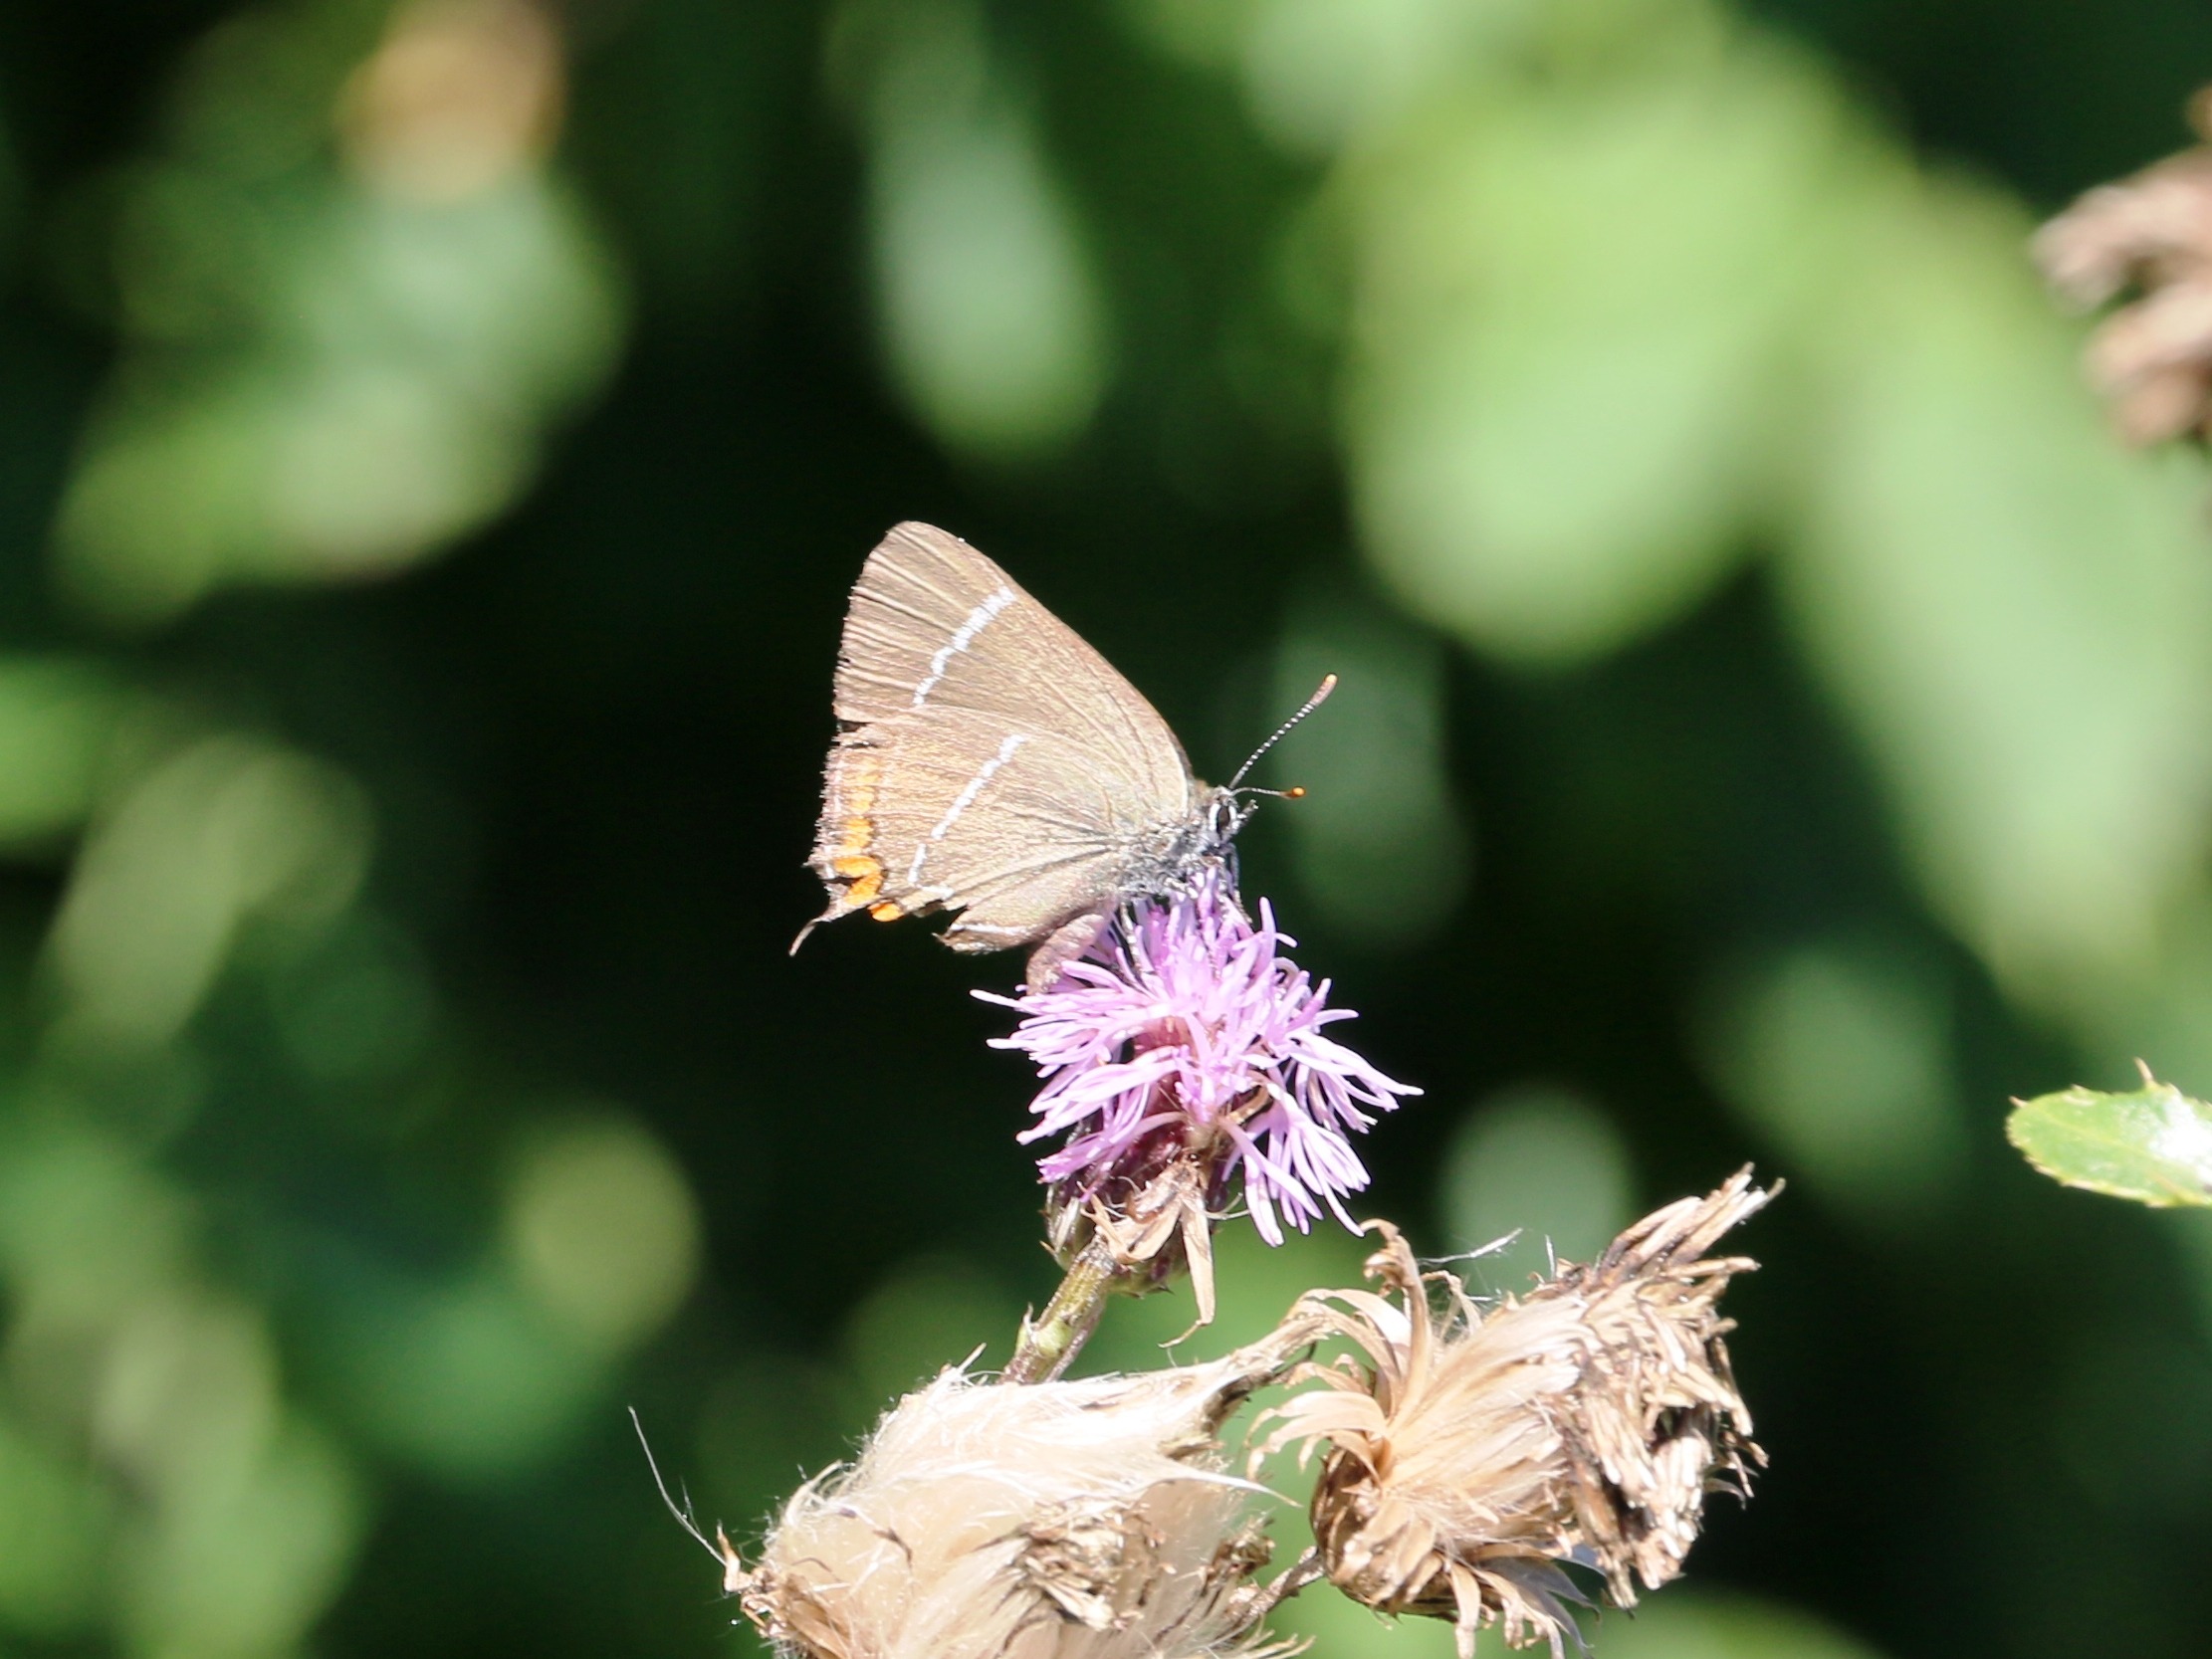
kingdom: Animalia
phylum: Arthropoda
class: Insecta
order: Lepidoptera
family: Lycaenidae
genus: Satyrium
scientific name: Satyrium w-album
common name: Det hvide W
